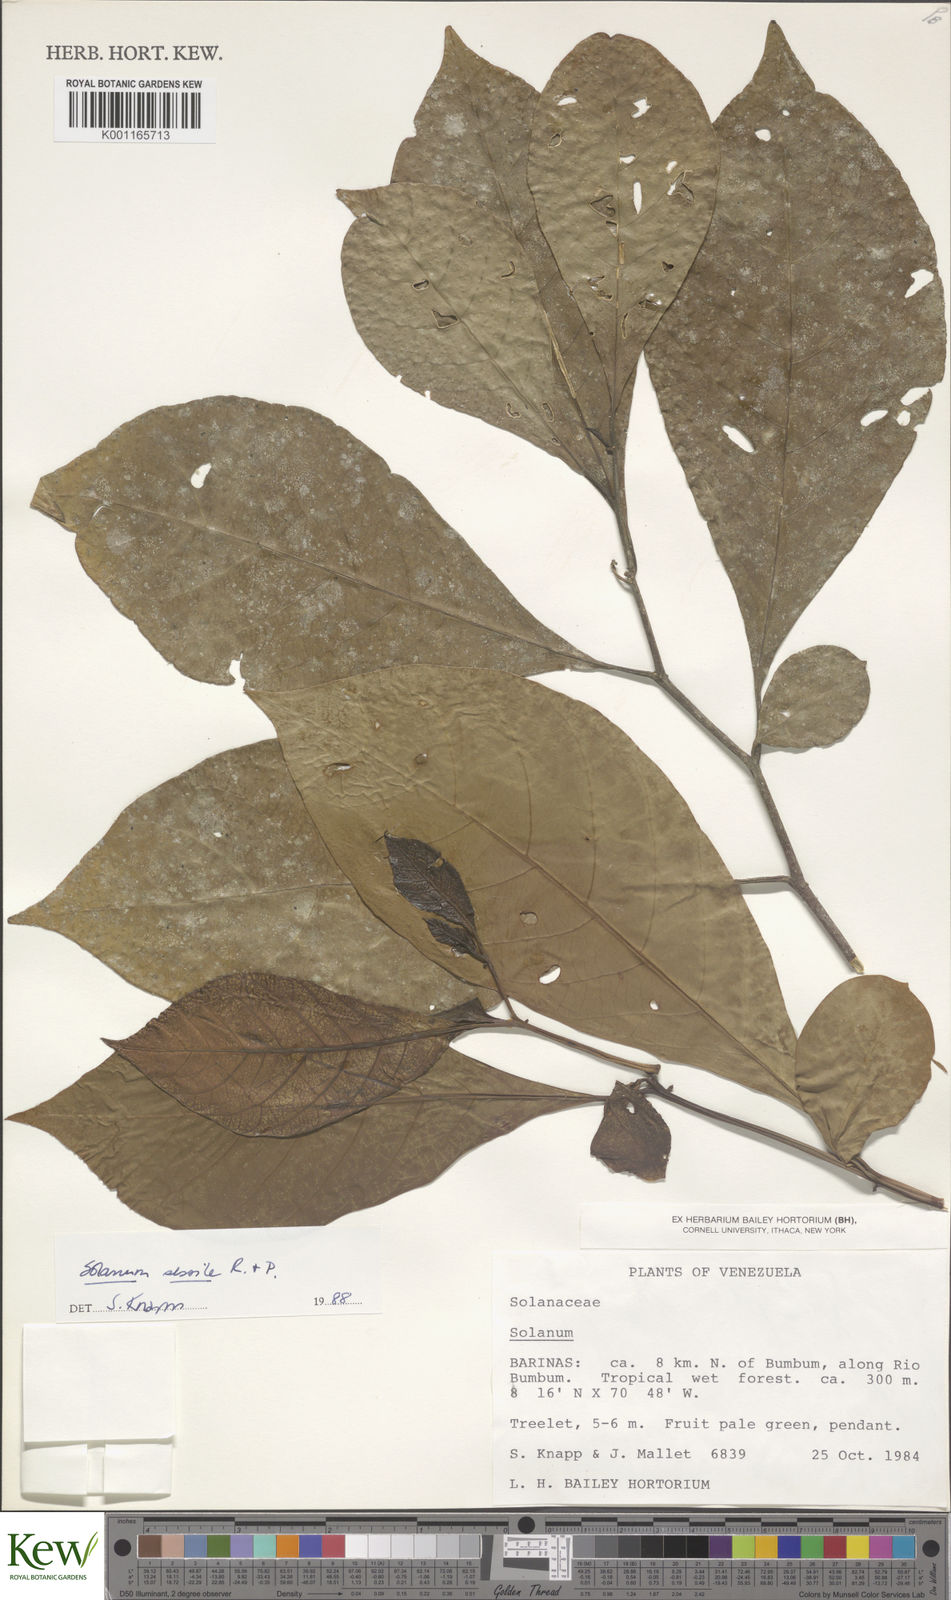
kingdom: Plantae
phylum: Tracheophyta
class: Magnoliopsida
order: Solanales
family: Solanaceae
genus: Solanum
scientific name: Solanum sessile
